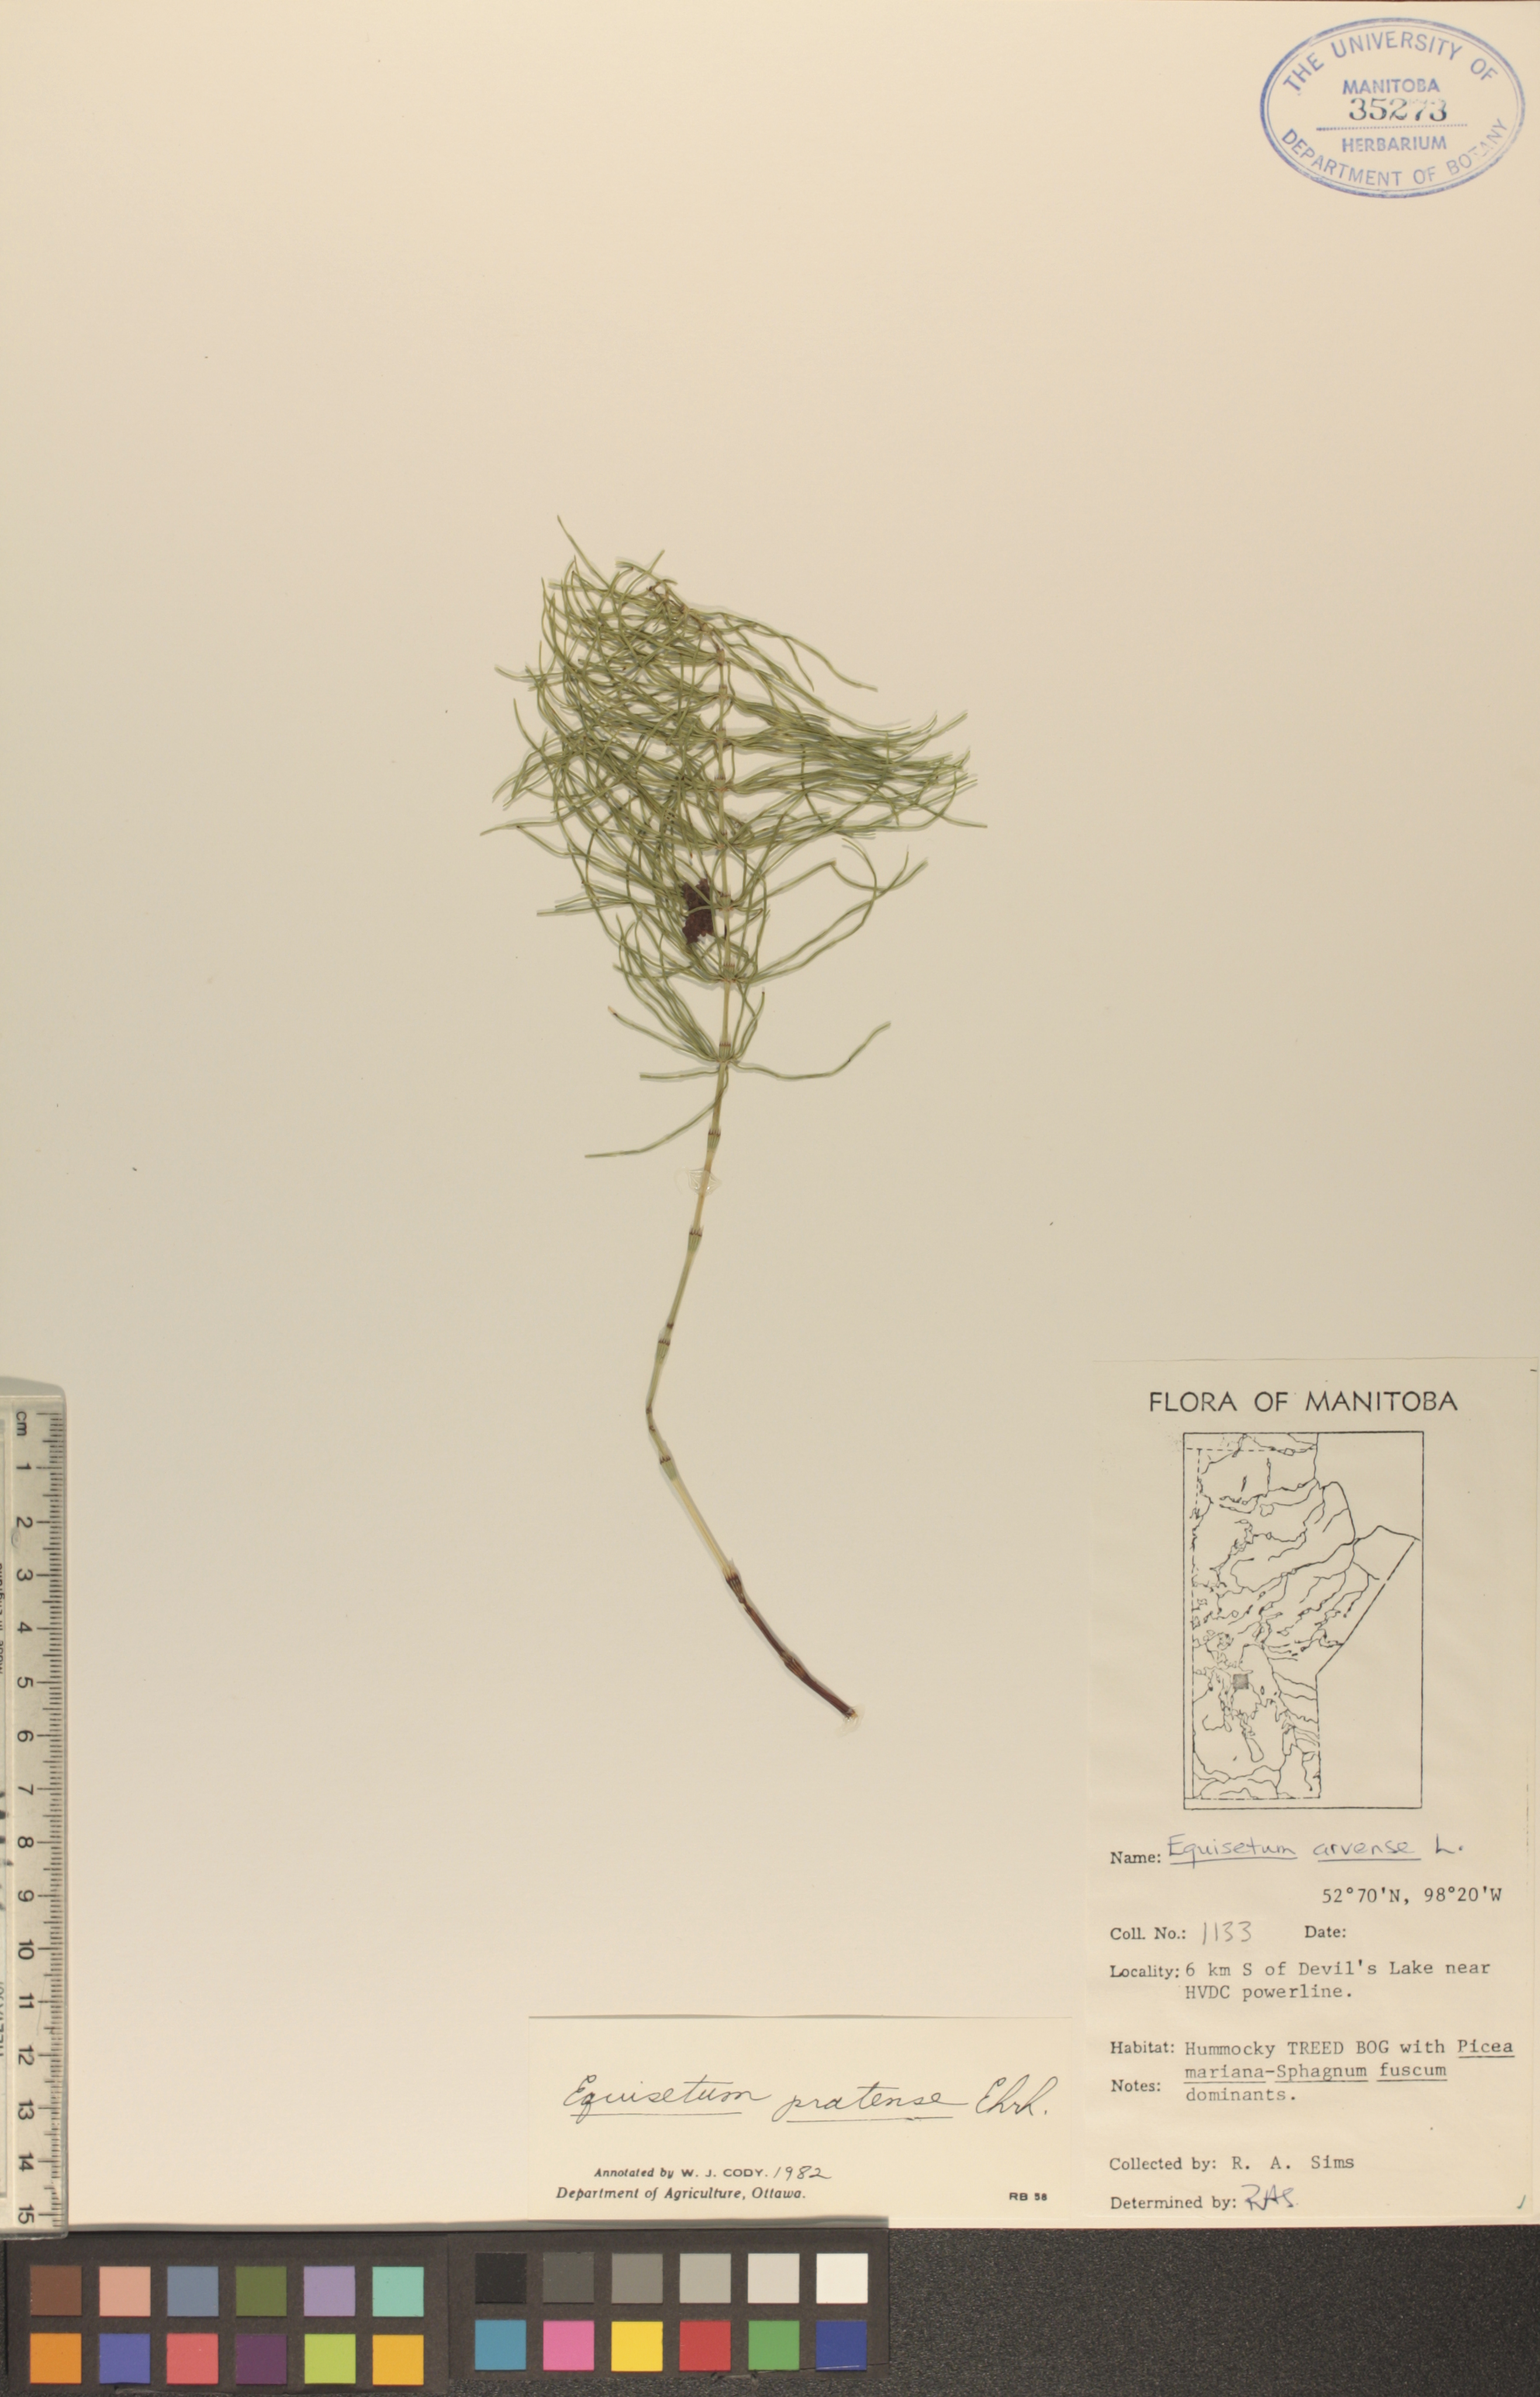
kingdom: Plantae
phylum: Tracheophyta
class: Polypodiopsida
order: Equisetales
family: Equisetaceae
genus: Equisetum
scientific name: Equisetum pratense
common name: Meadow horsetail
